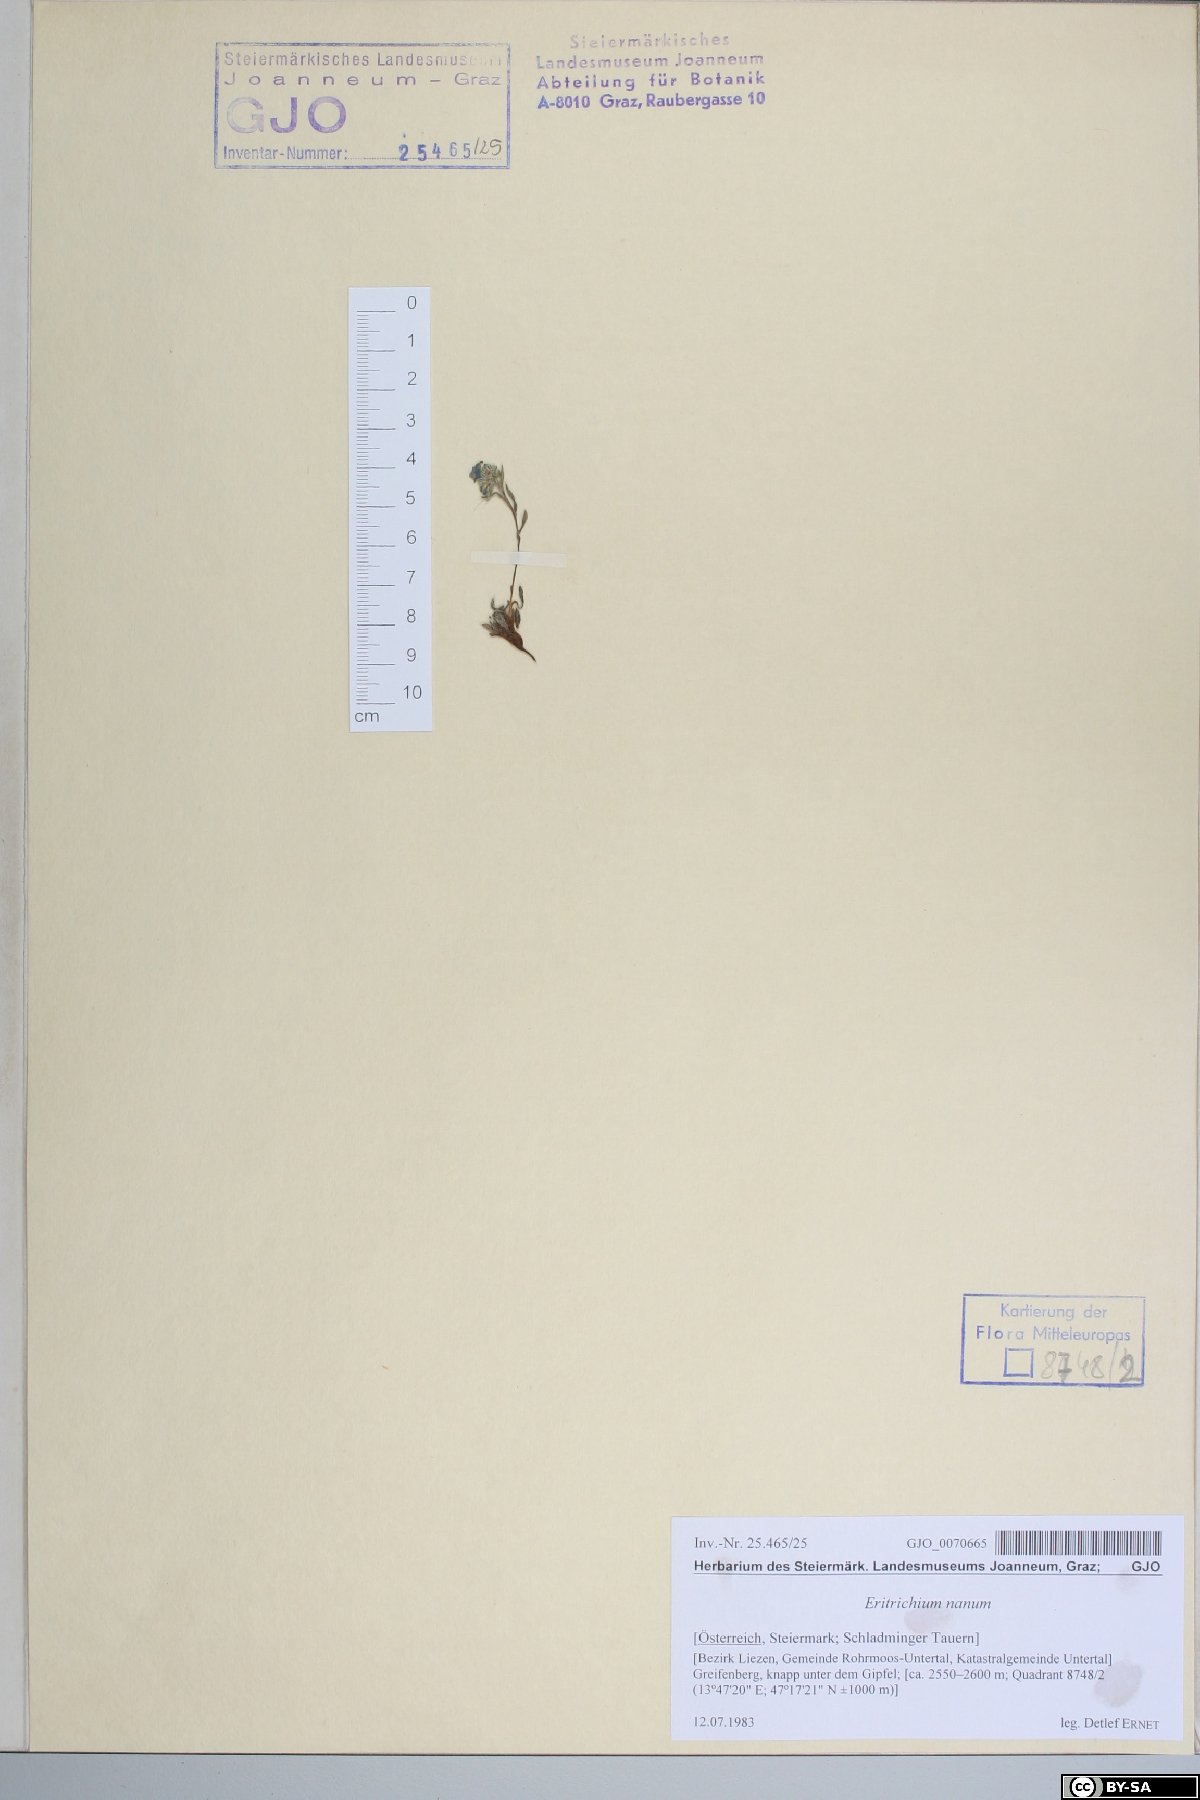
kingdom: Plantae
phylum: Tracheophyta
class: Magnoliopsida
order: Boraginales
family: Boraginaceae
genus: Eritrichium
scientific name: Eritrichium nanum
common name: King-of-the-alps
